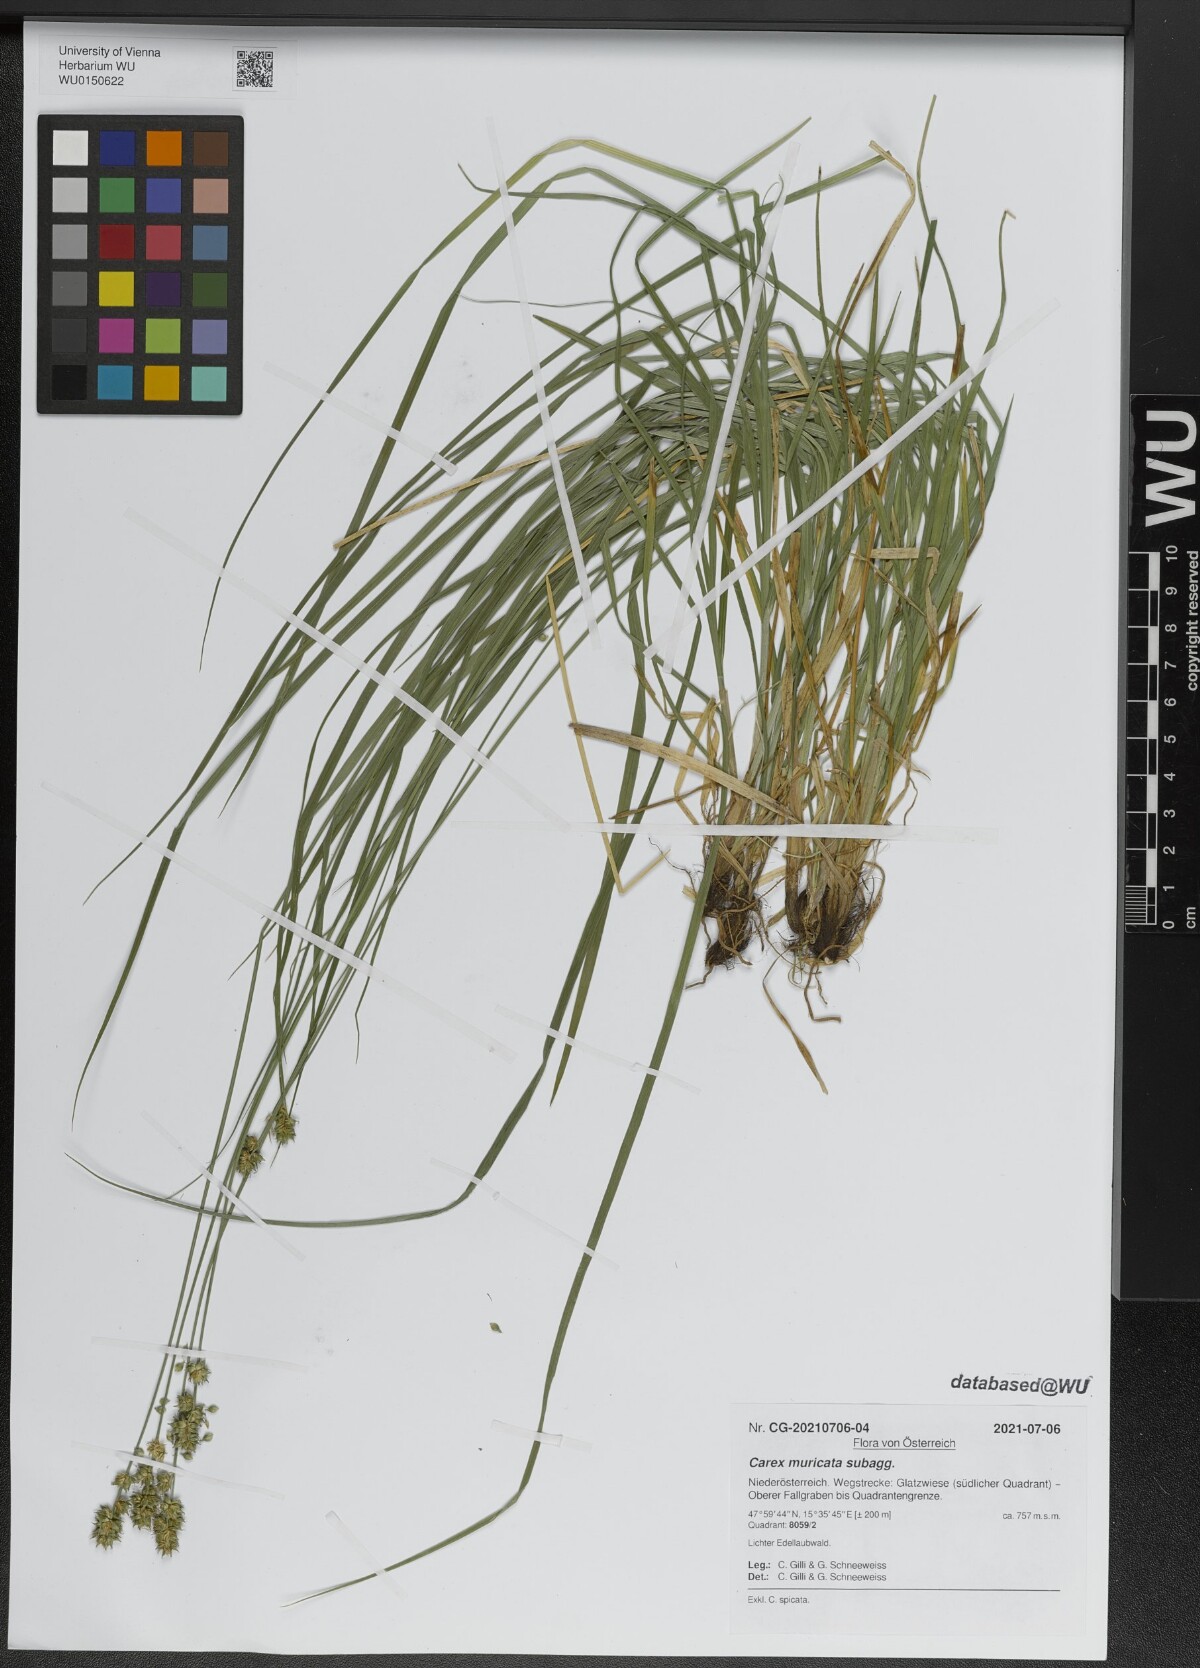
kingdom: Plantae
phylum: Tracheophyta
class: Liliopsida
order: Poales
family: Cyperaceae
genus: Carex
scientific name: Carex muricata
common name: Rough sedge
